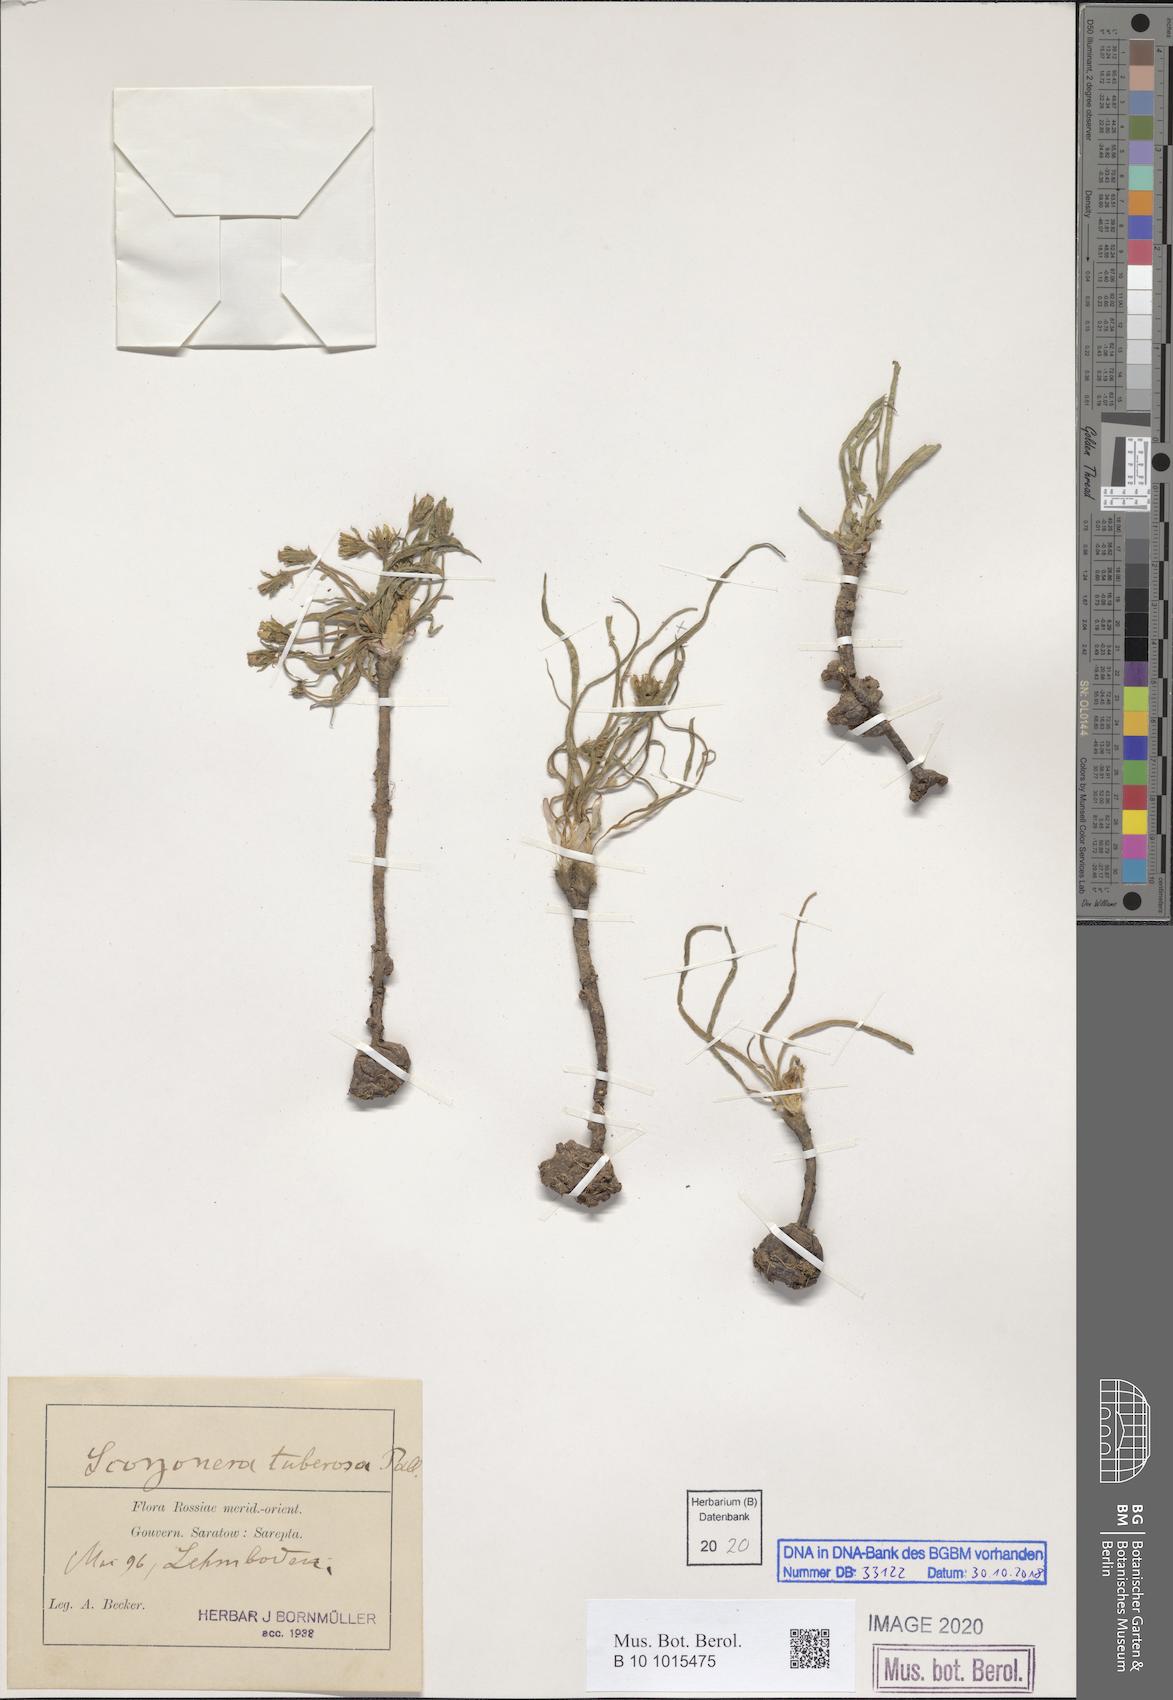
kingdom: Plantae
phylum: Tracheophyta
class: Magnoliopsida
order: Asterales
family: Asteraceae
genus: Gelasia
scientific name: Gelasia tuberosa
